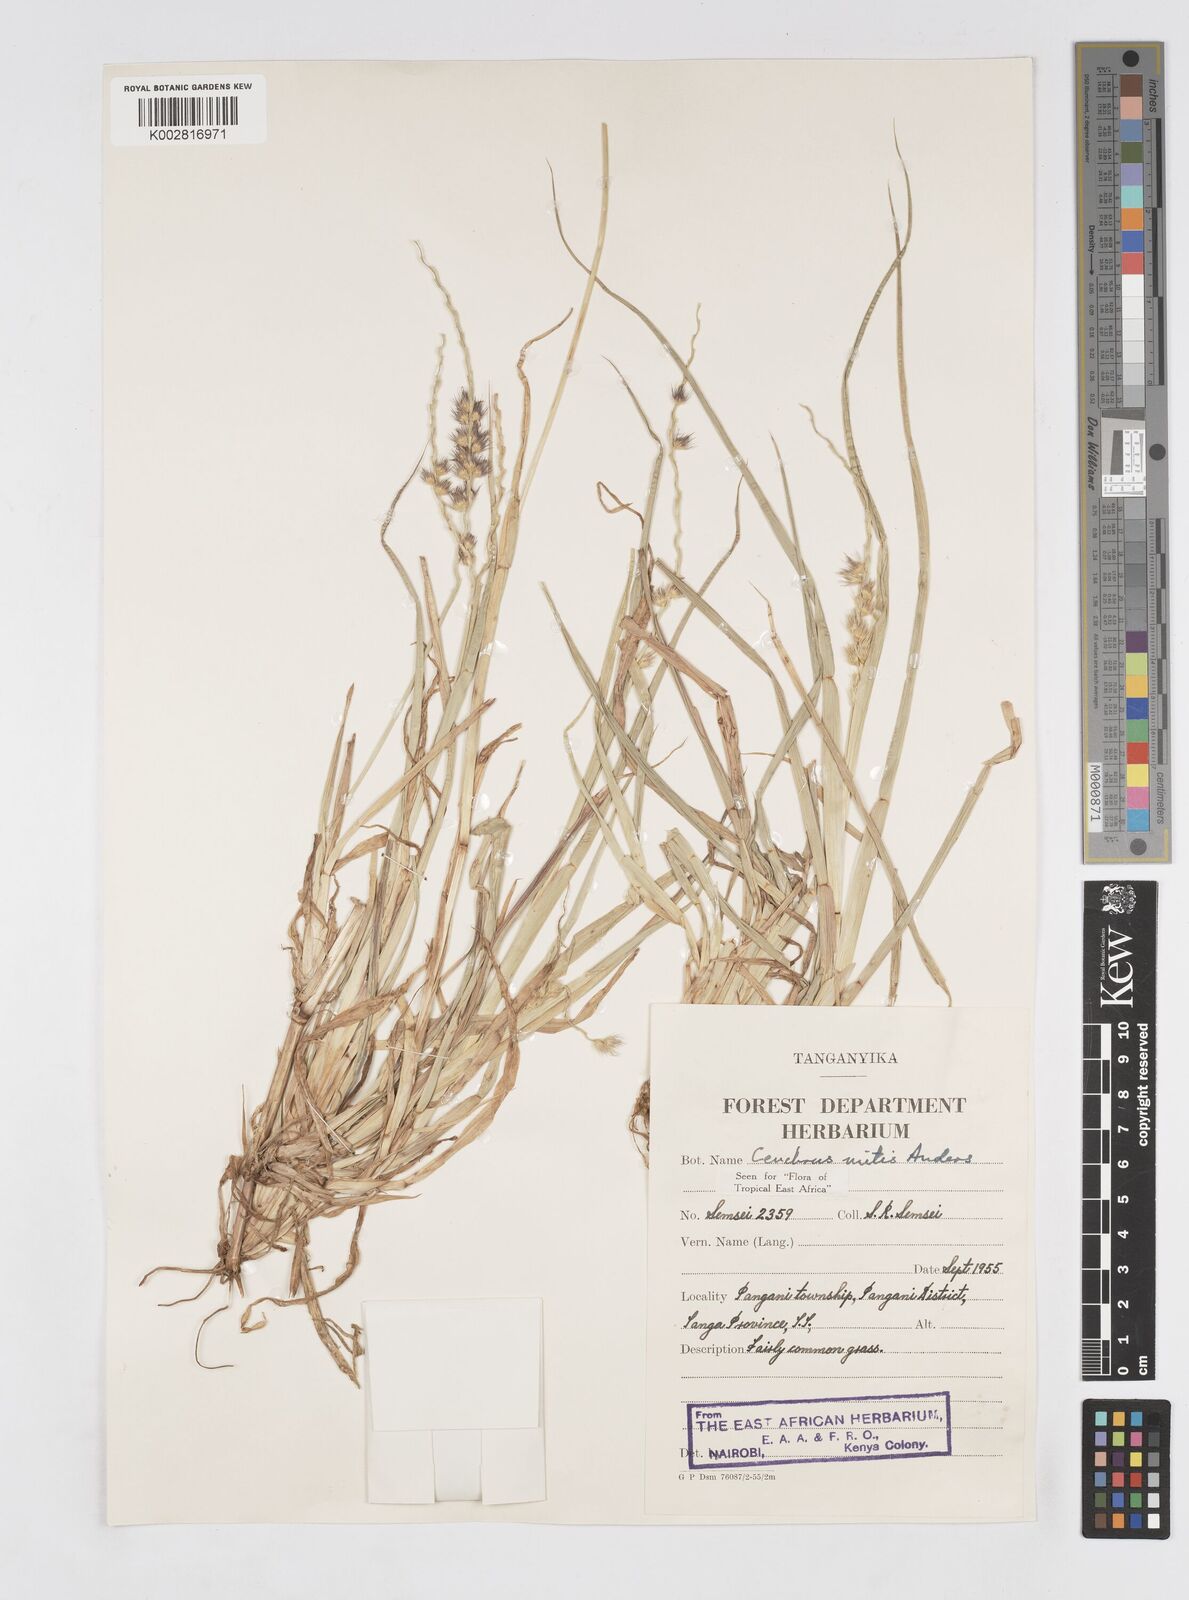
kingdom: Plantae
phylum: Tracheophyta
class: Liliopsida
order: Poales
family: Poaceae
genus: Cenchrus
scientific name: Cenchrus mitis
